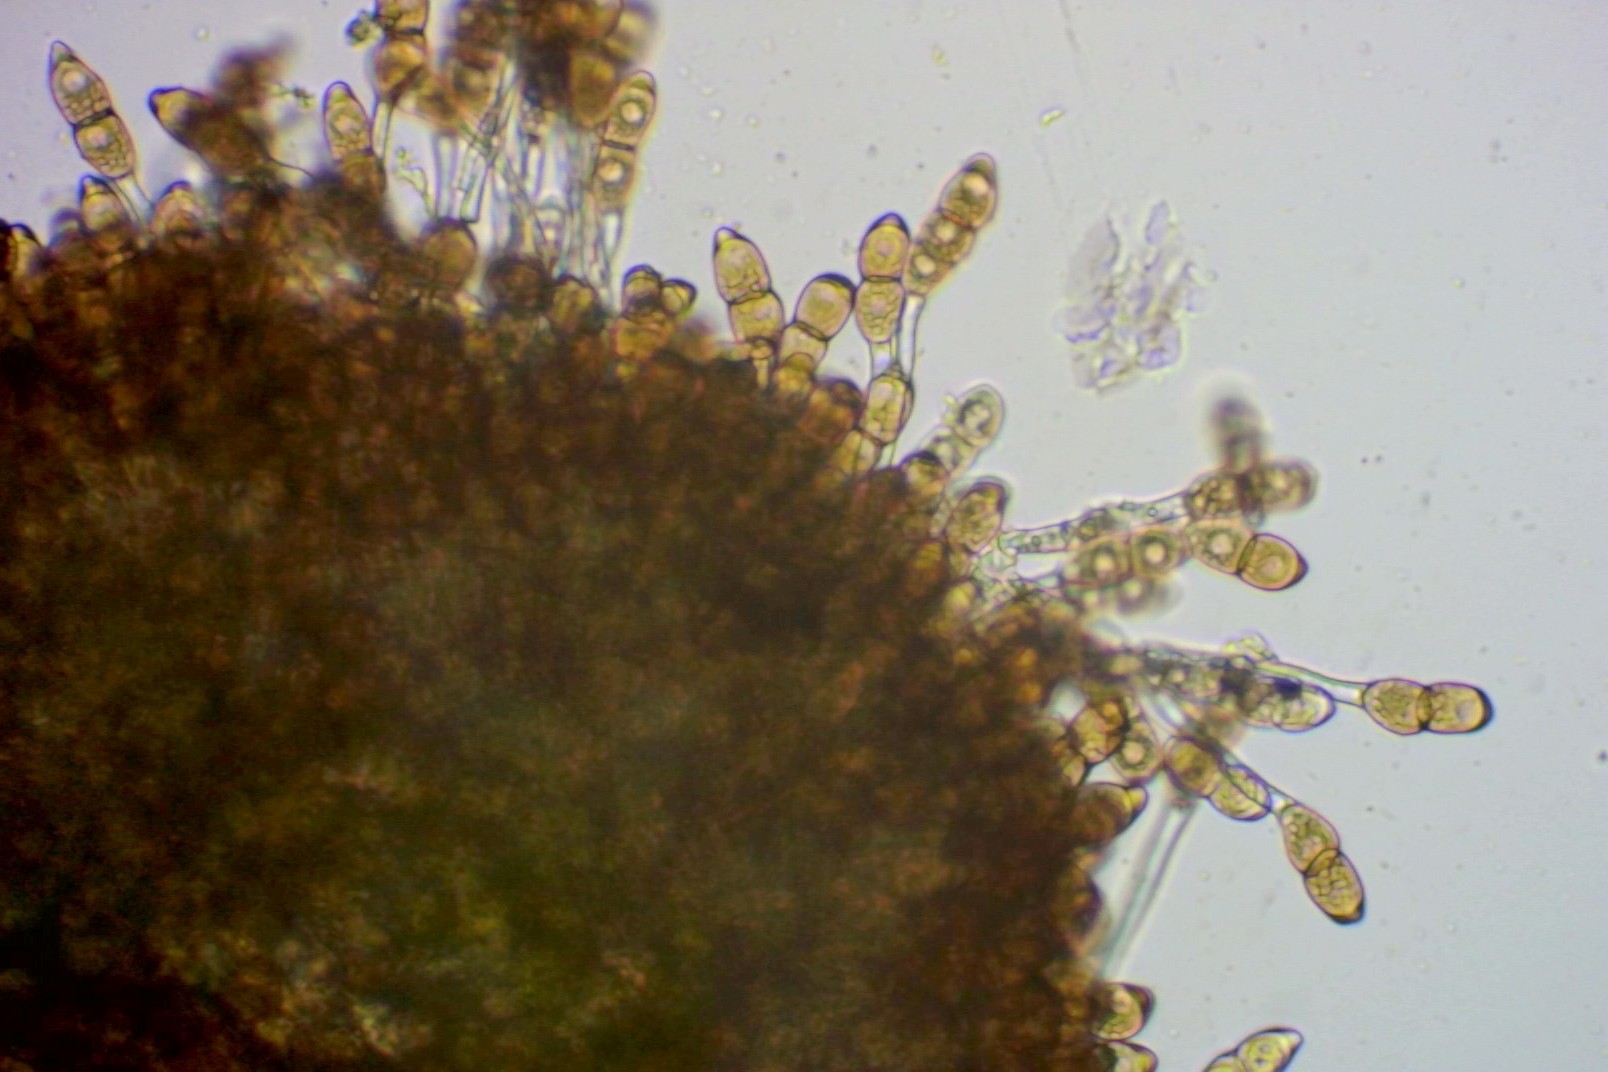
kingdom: Fungi
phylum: Basidiomycota
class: Pucciniomycetes
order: Pucciniales
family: Pucciniaceae
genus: Puccinia
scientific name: Puccinia arenariae
